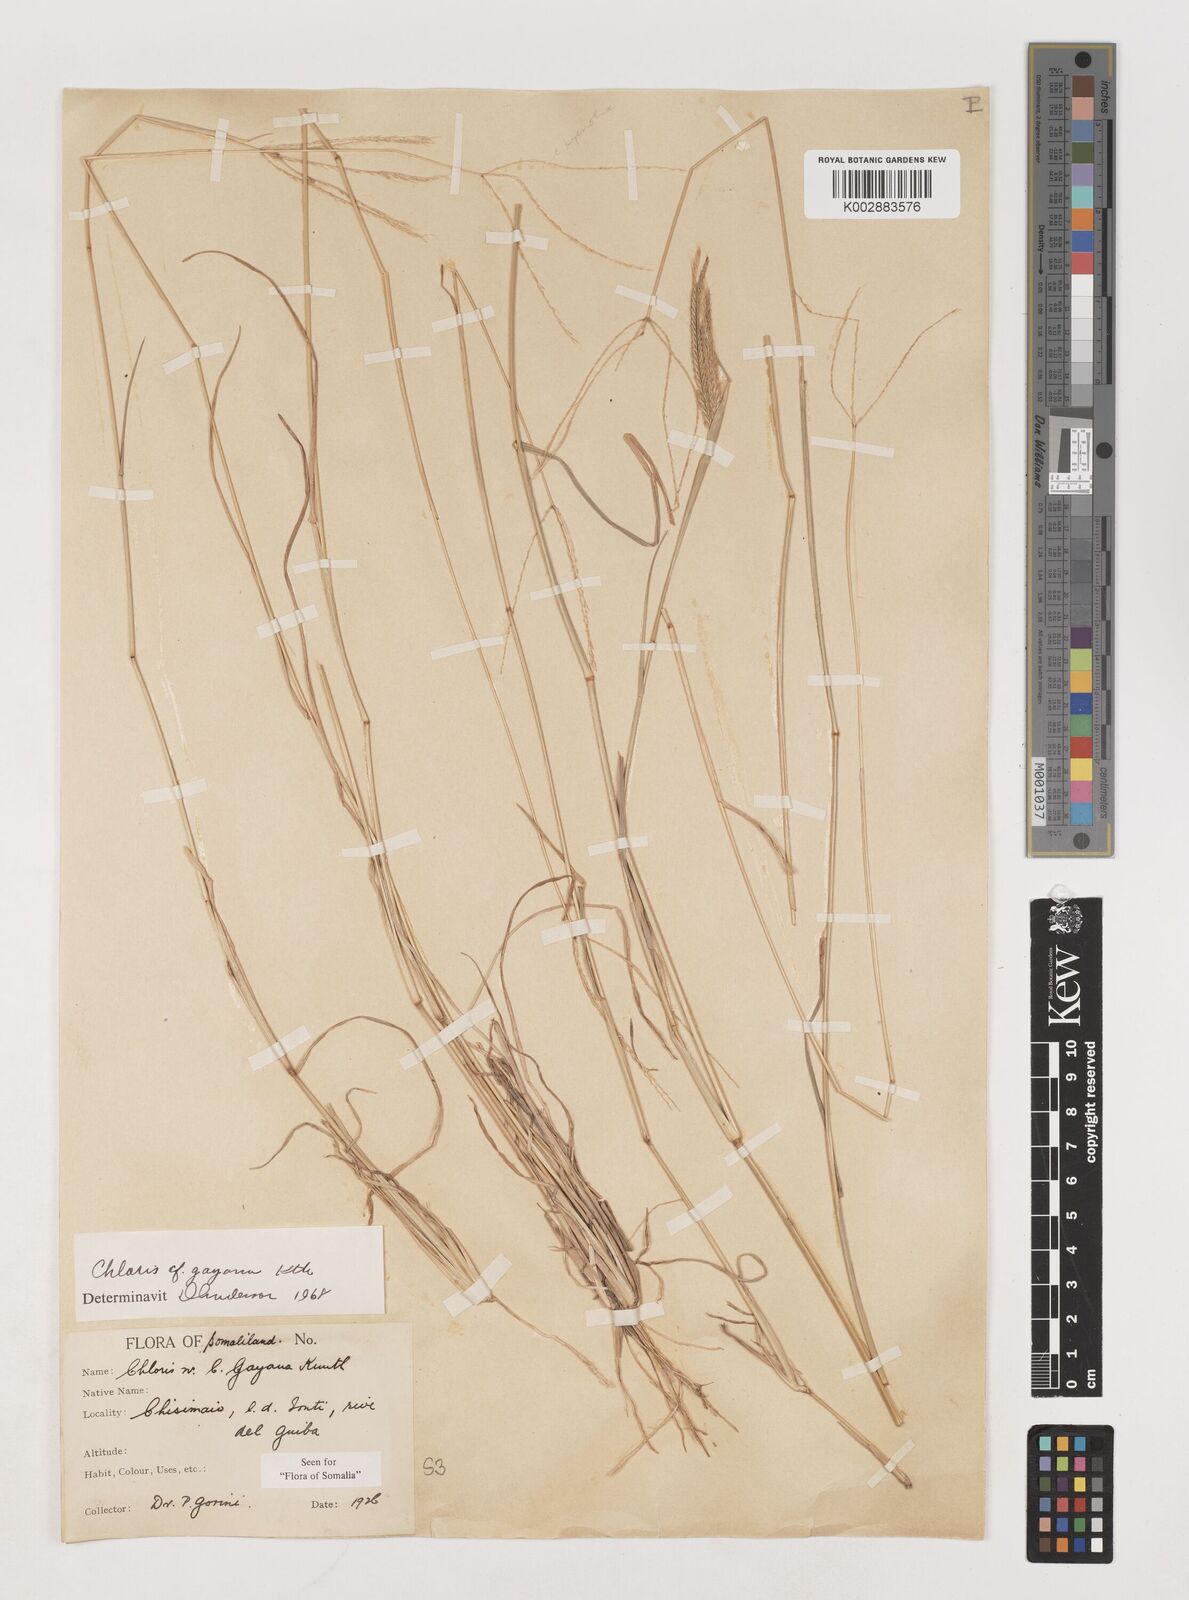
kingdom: Plantae
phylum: Tracheophyta
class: Liliopsida
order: Poales
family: Poaceae
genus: Chloris
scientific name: Chloris gayana
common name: Rhodes grass
